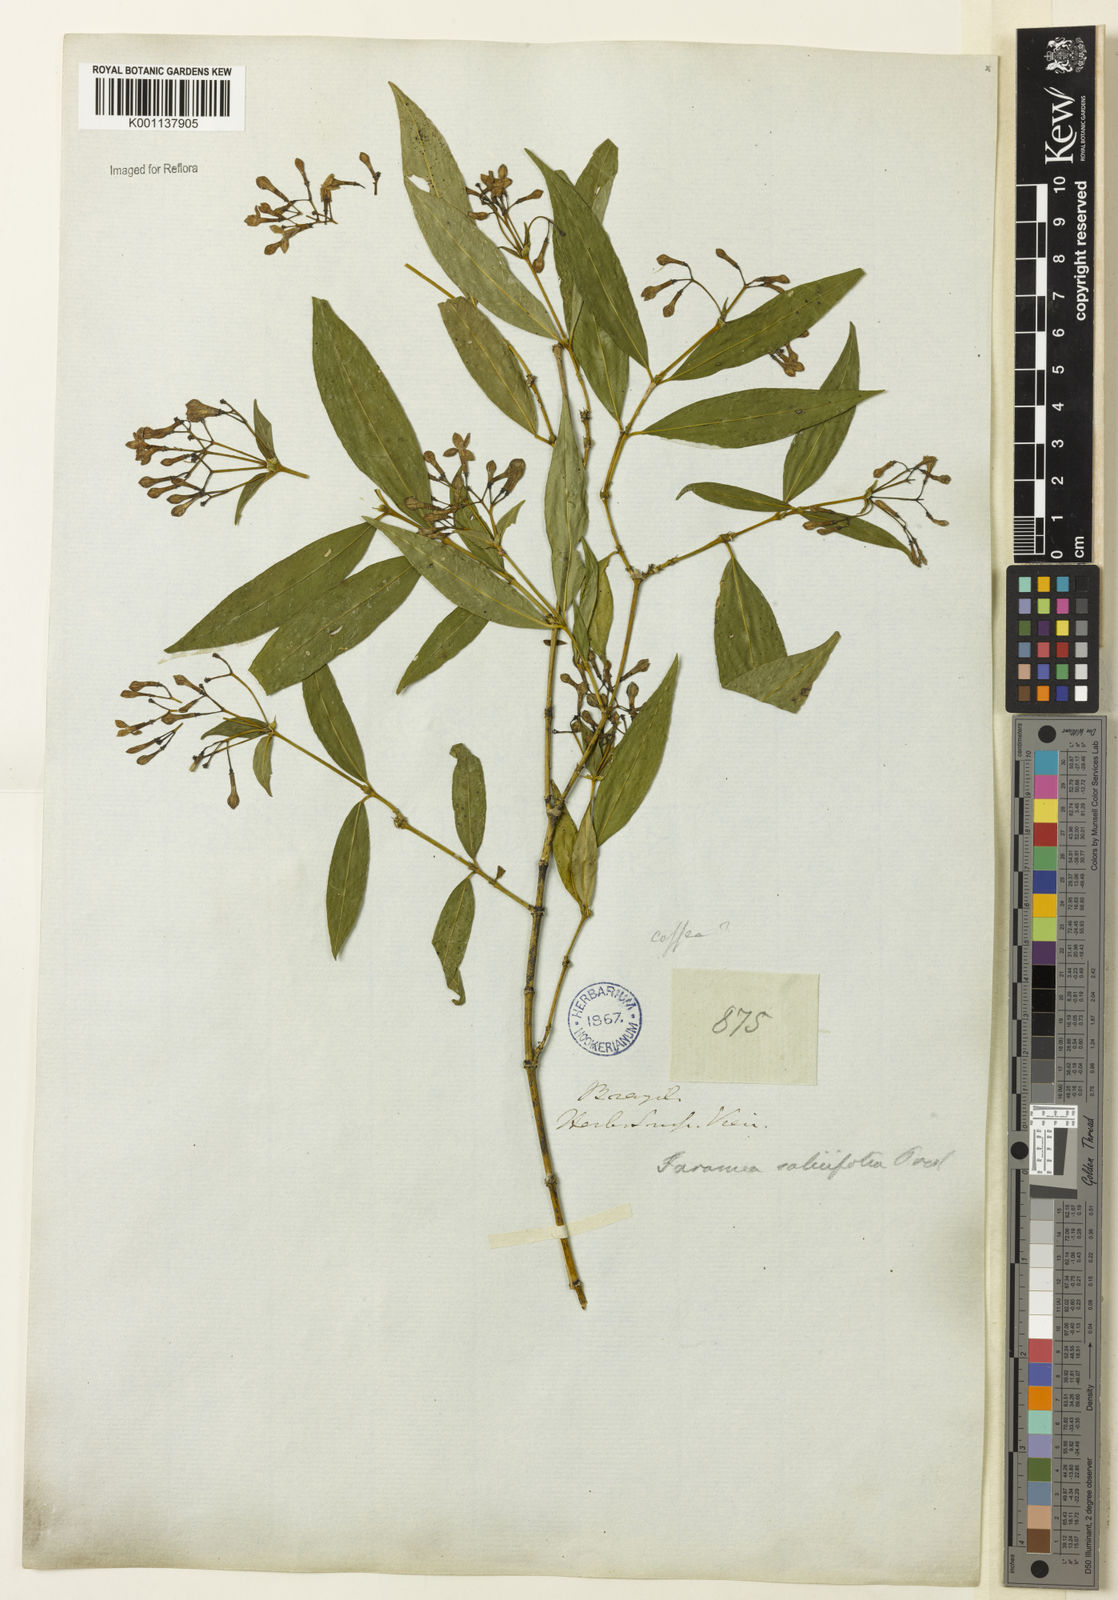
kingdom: Plantae
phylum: Tracheophyta
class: Magnoliopsida
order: Gentianales
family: Rubiaceae
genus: Faramea
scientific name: Faramea multiflora
